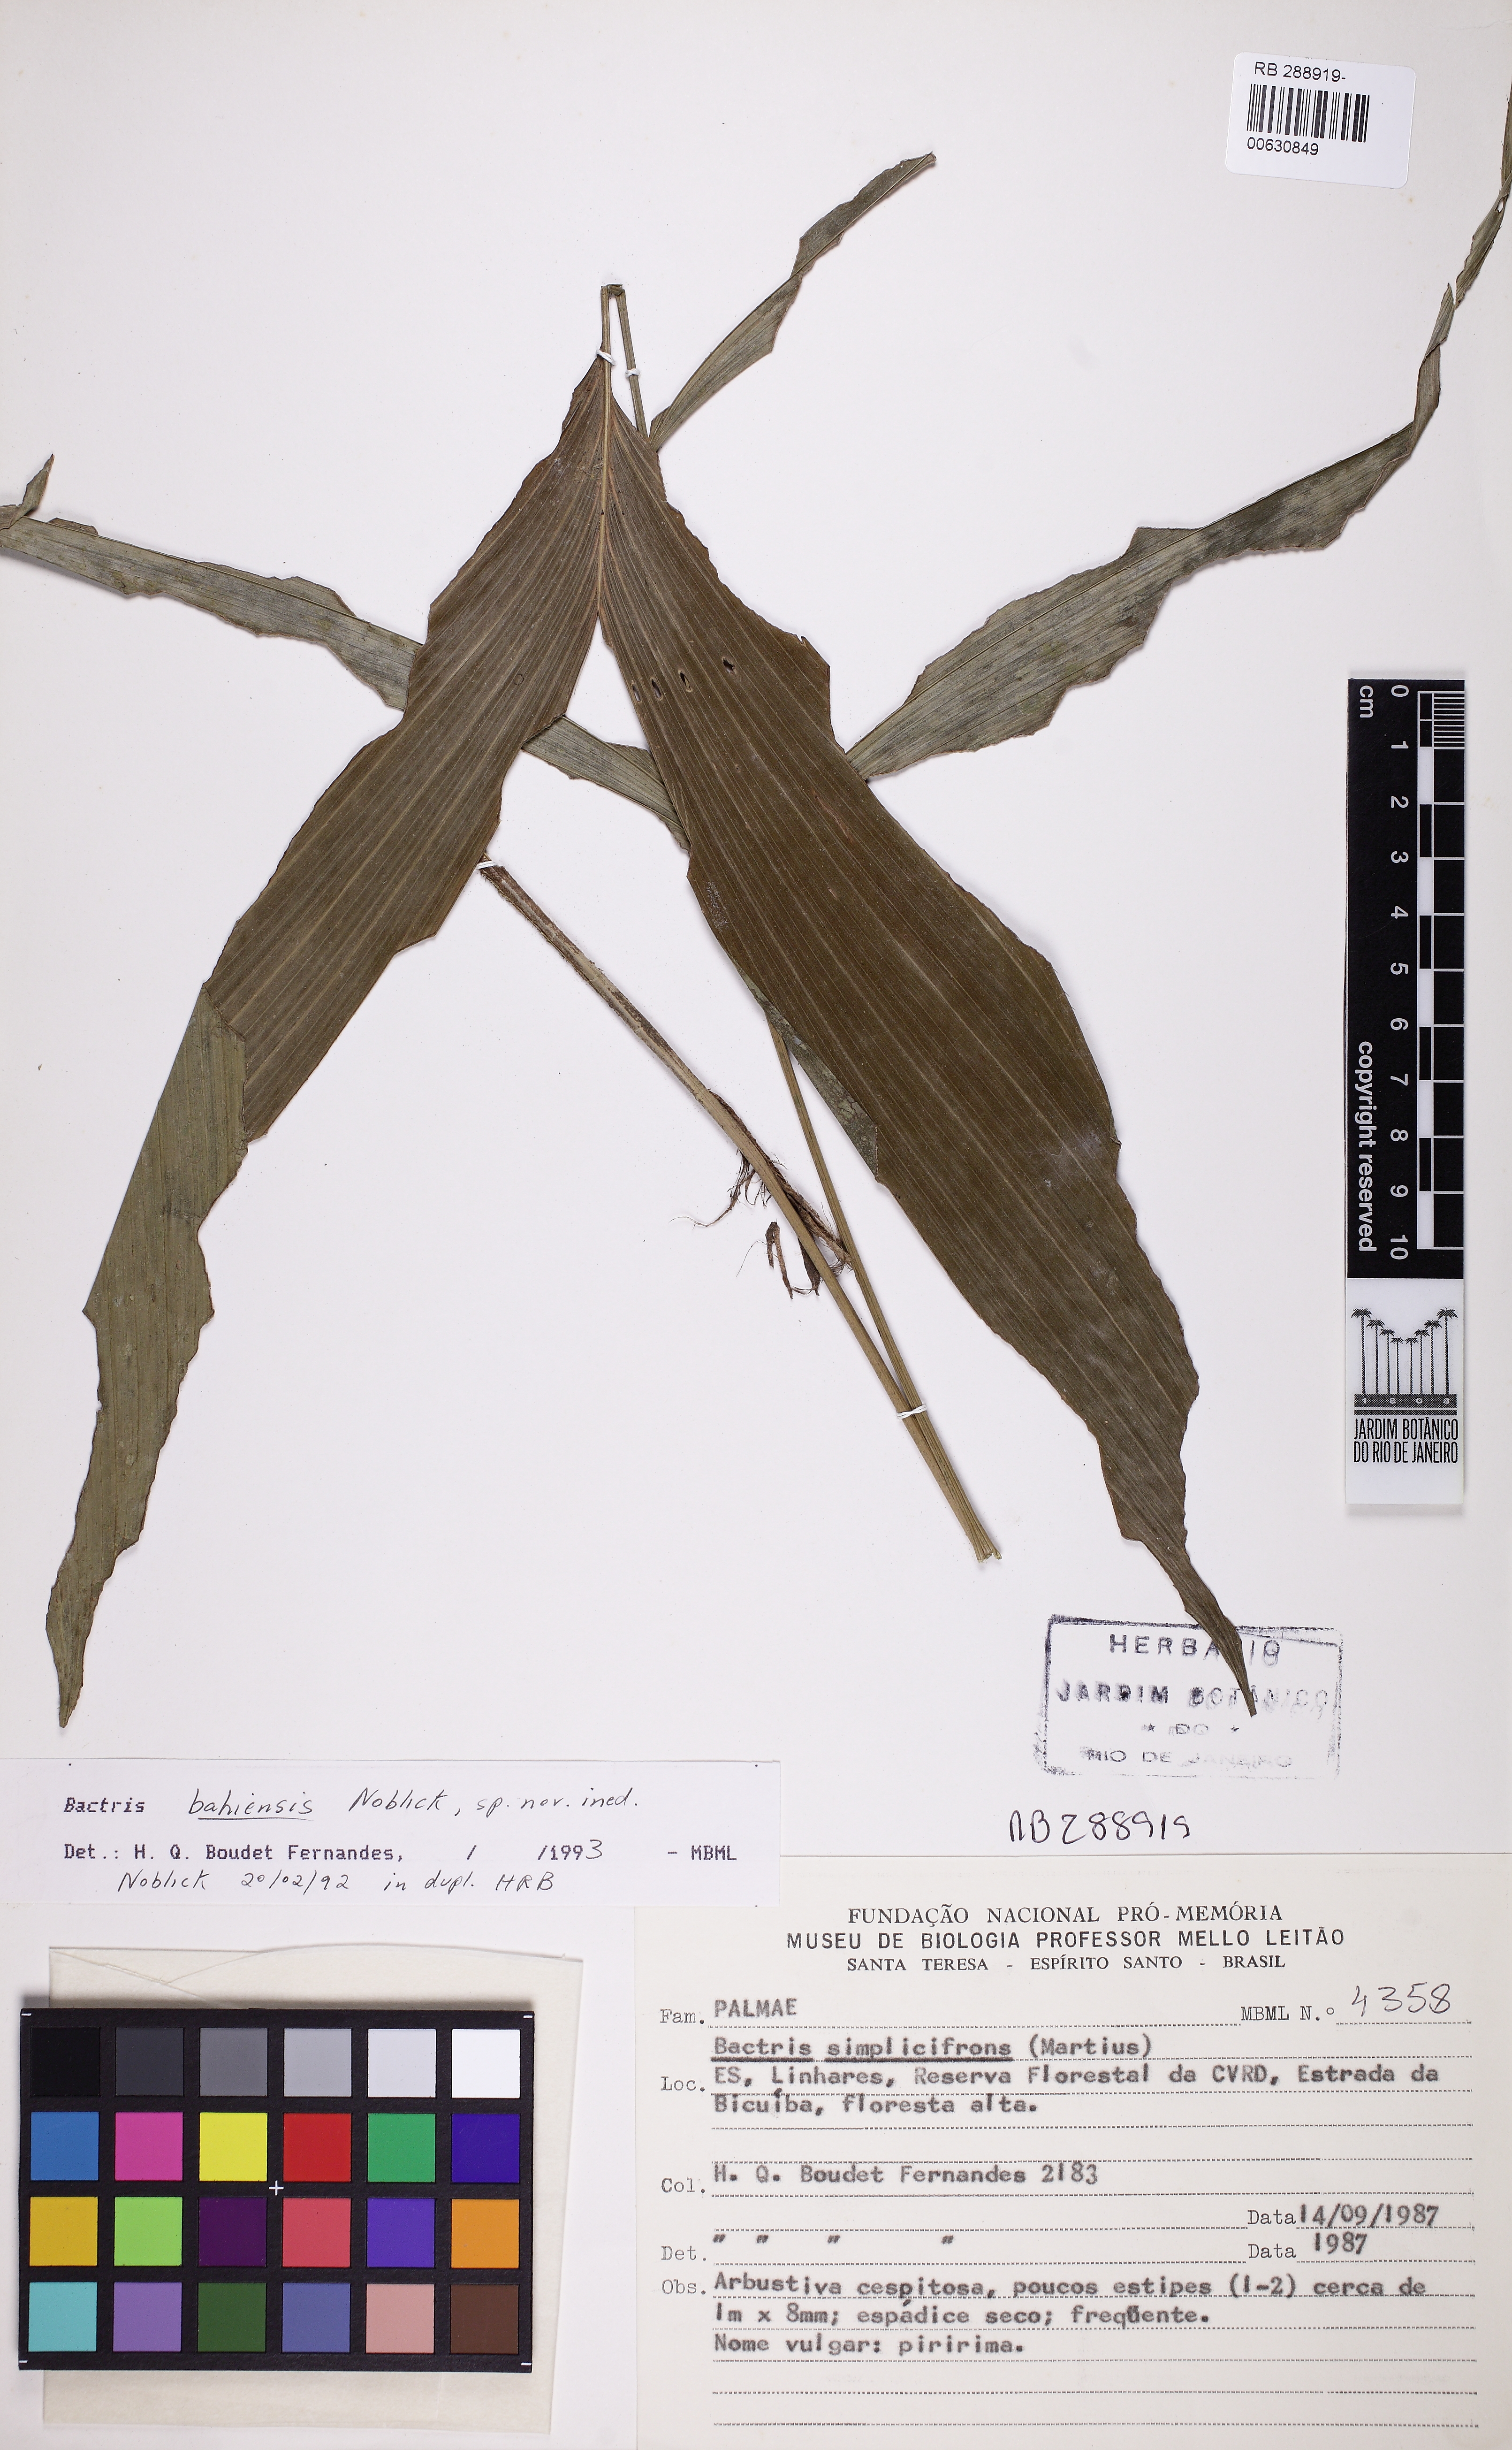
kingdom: Plantae
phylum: Tracheophyta
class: Liliopsida
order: Arecales
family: Arecaceae
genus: Bactris
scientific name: Bactris bahiensis
